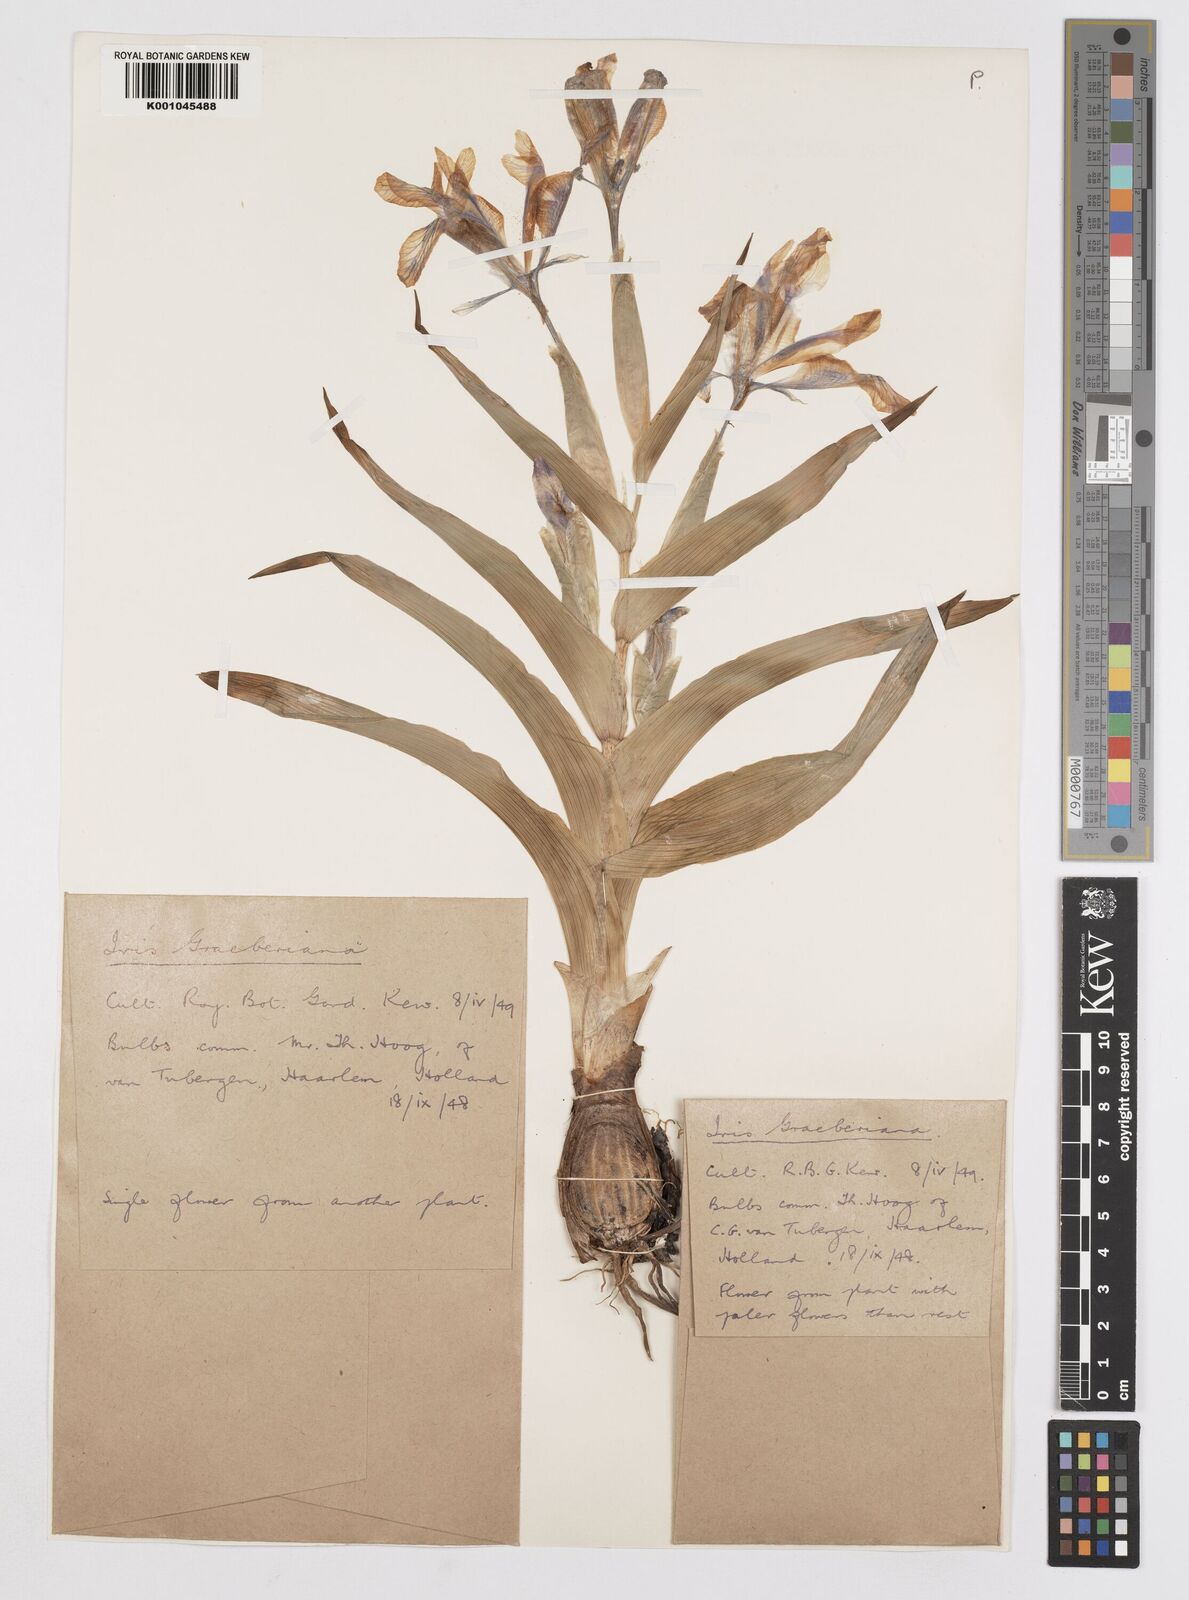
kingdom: Plantae
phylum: Tracheophyta
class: Liliopsida
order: Asparagales
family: Iridaceae
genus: Iris
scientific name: Iris graeberiana
